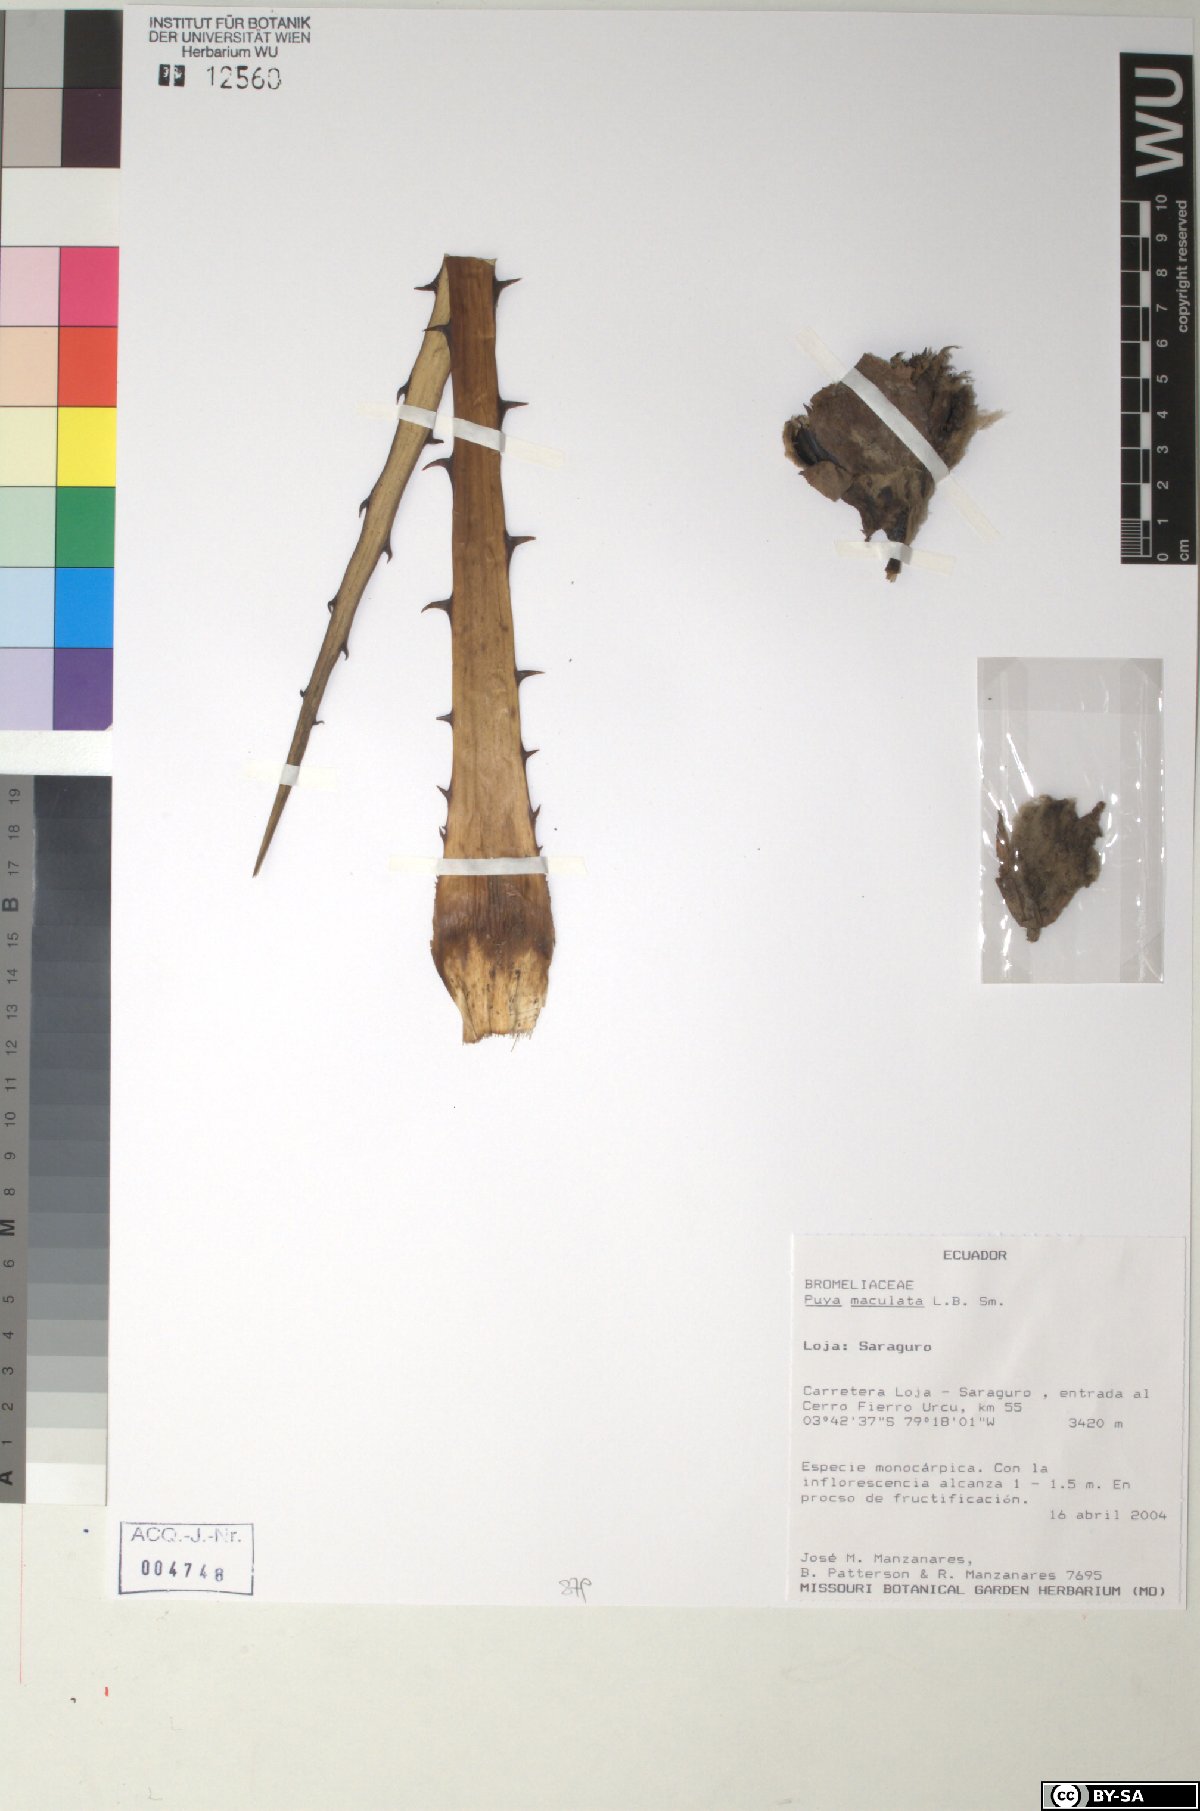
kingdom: Plantae
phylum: Tracheophyta
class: Liliopsida
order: Poales
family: Bromeliaceae
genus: Puya
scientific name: Puya maculata
